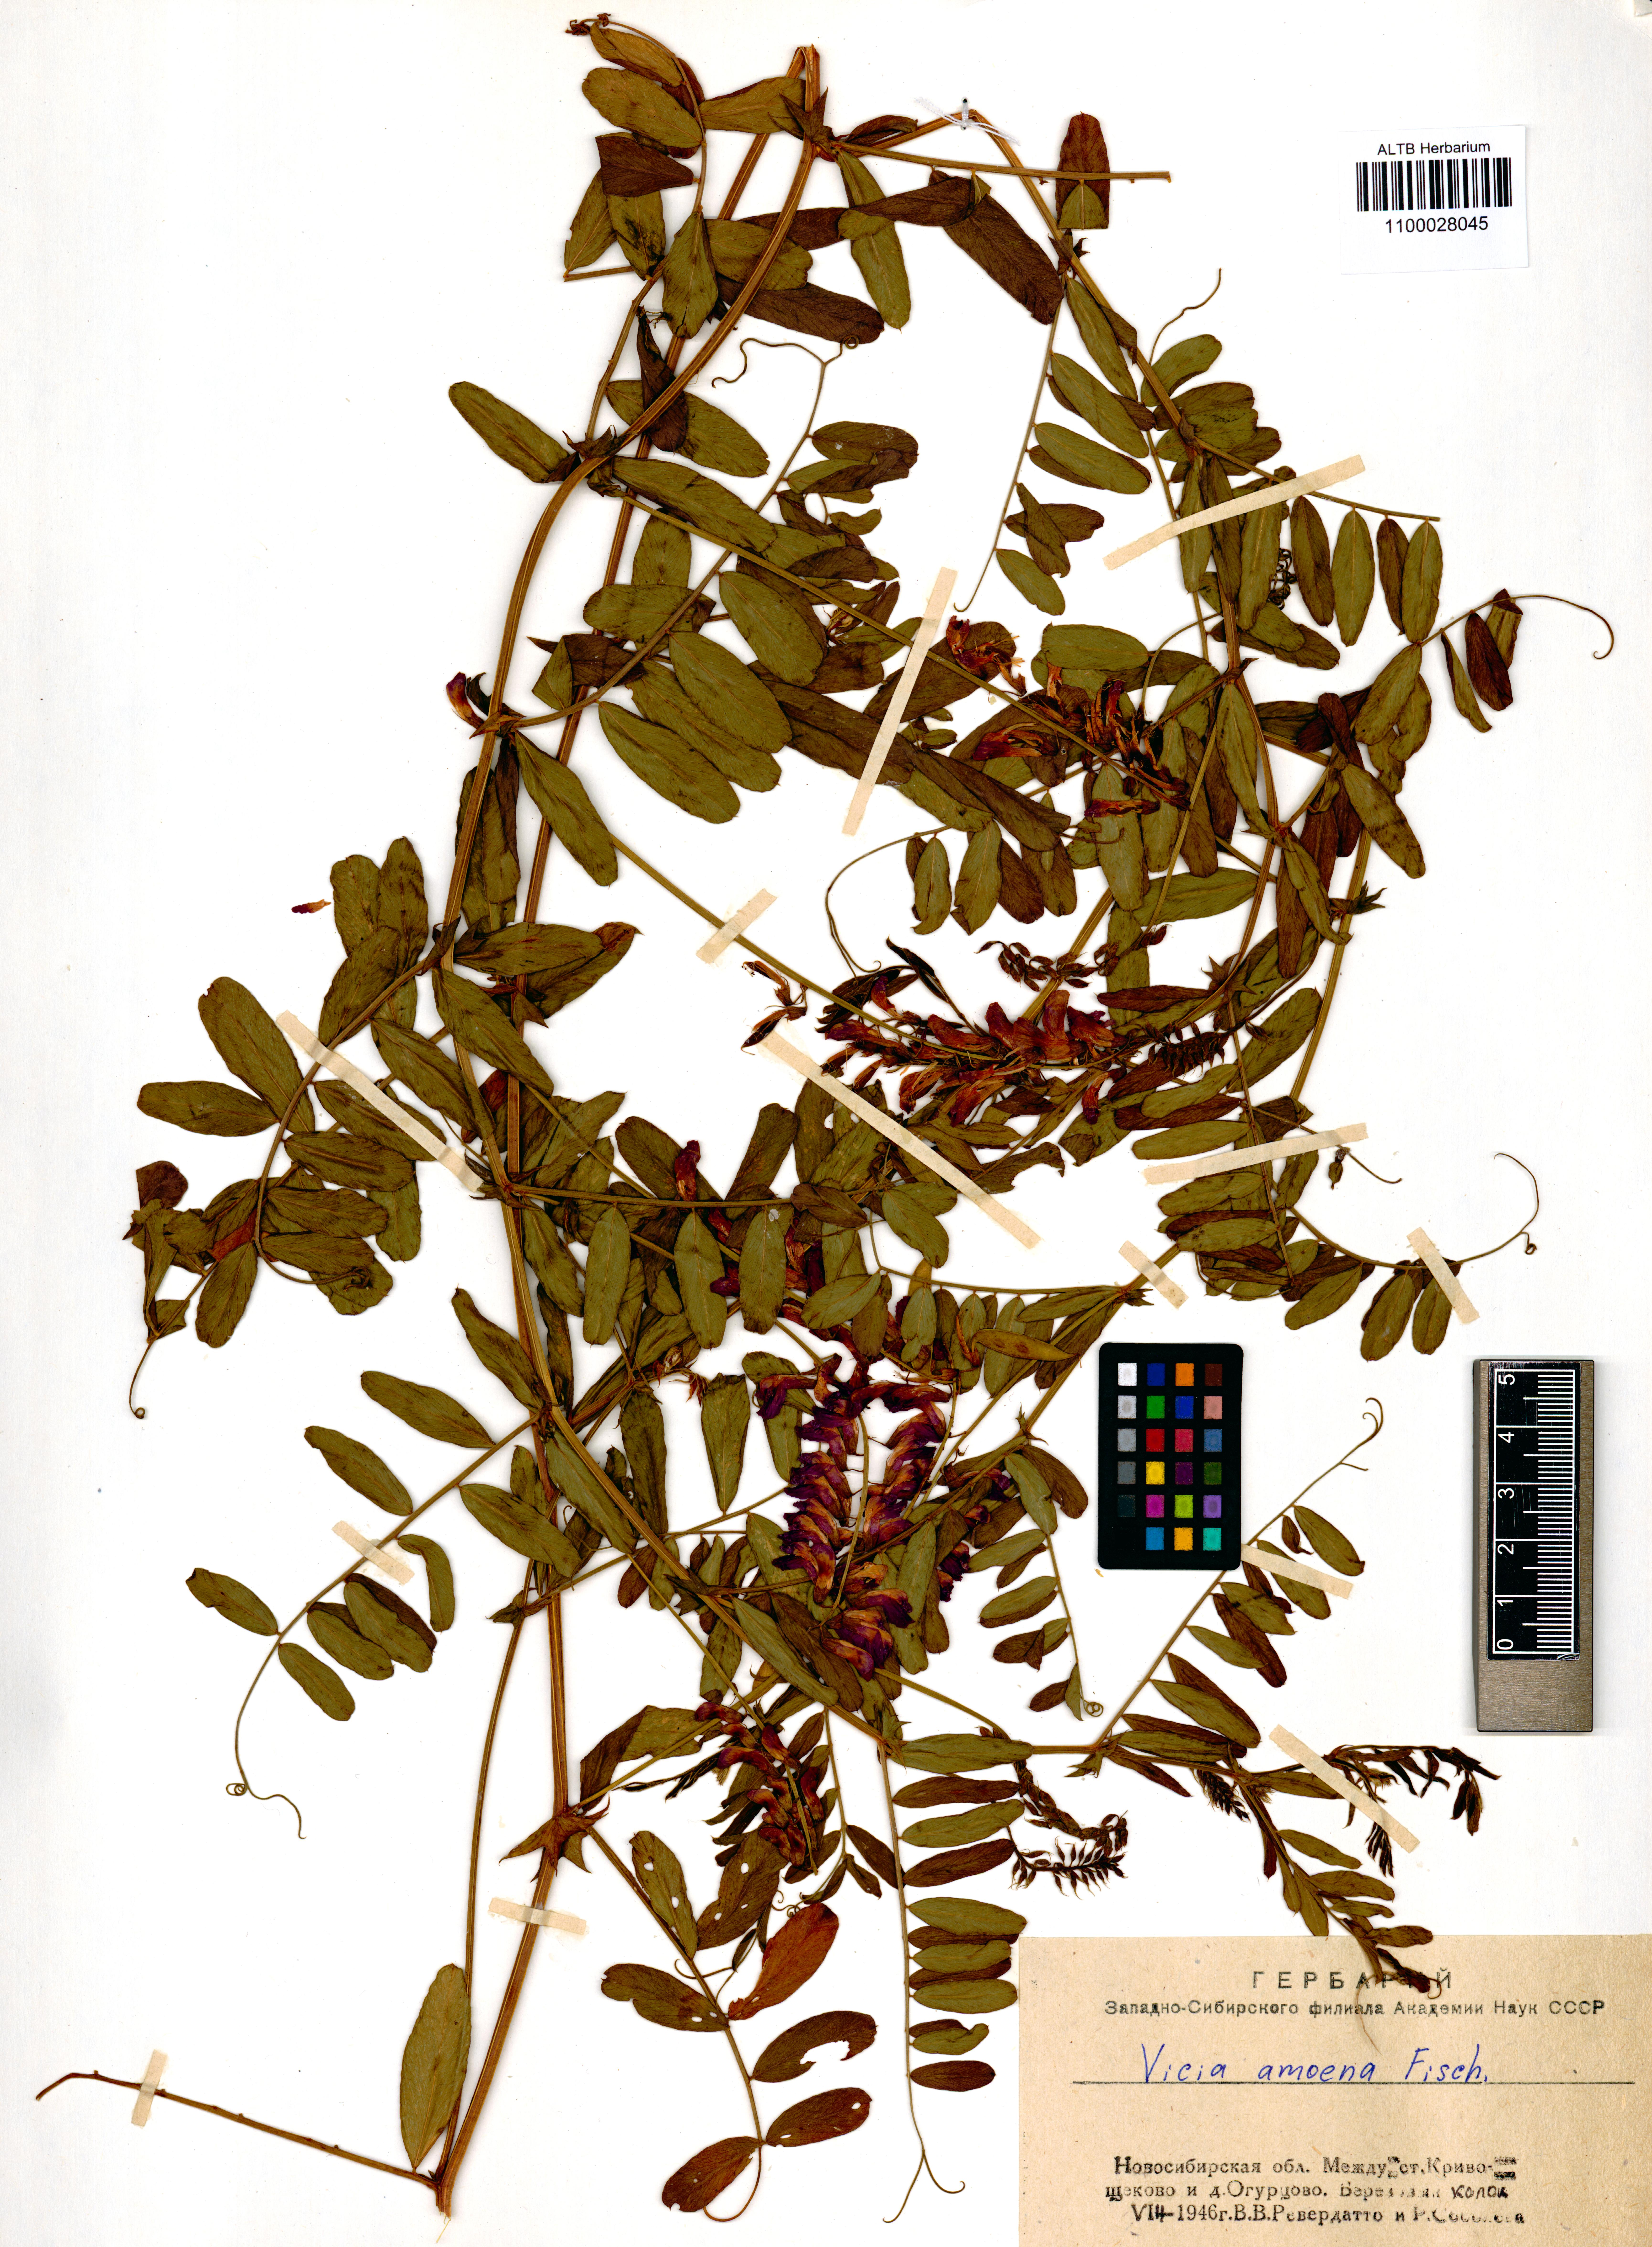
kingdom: Plantae
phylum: Tracheophyta
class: Magnoliopsida
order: Fabales
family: Fabaceae
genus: Vicia
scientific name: Vicia amoena
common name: Cheder ebs
